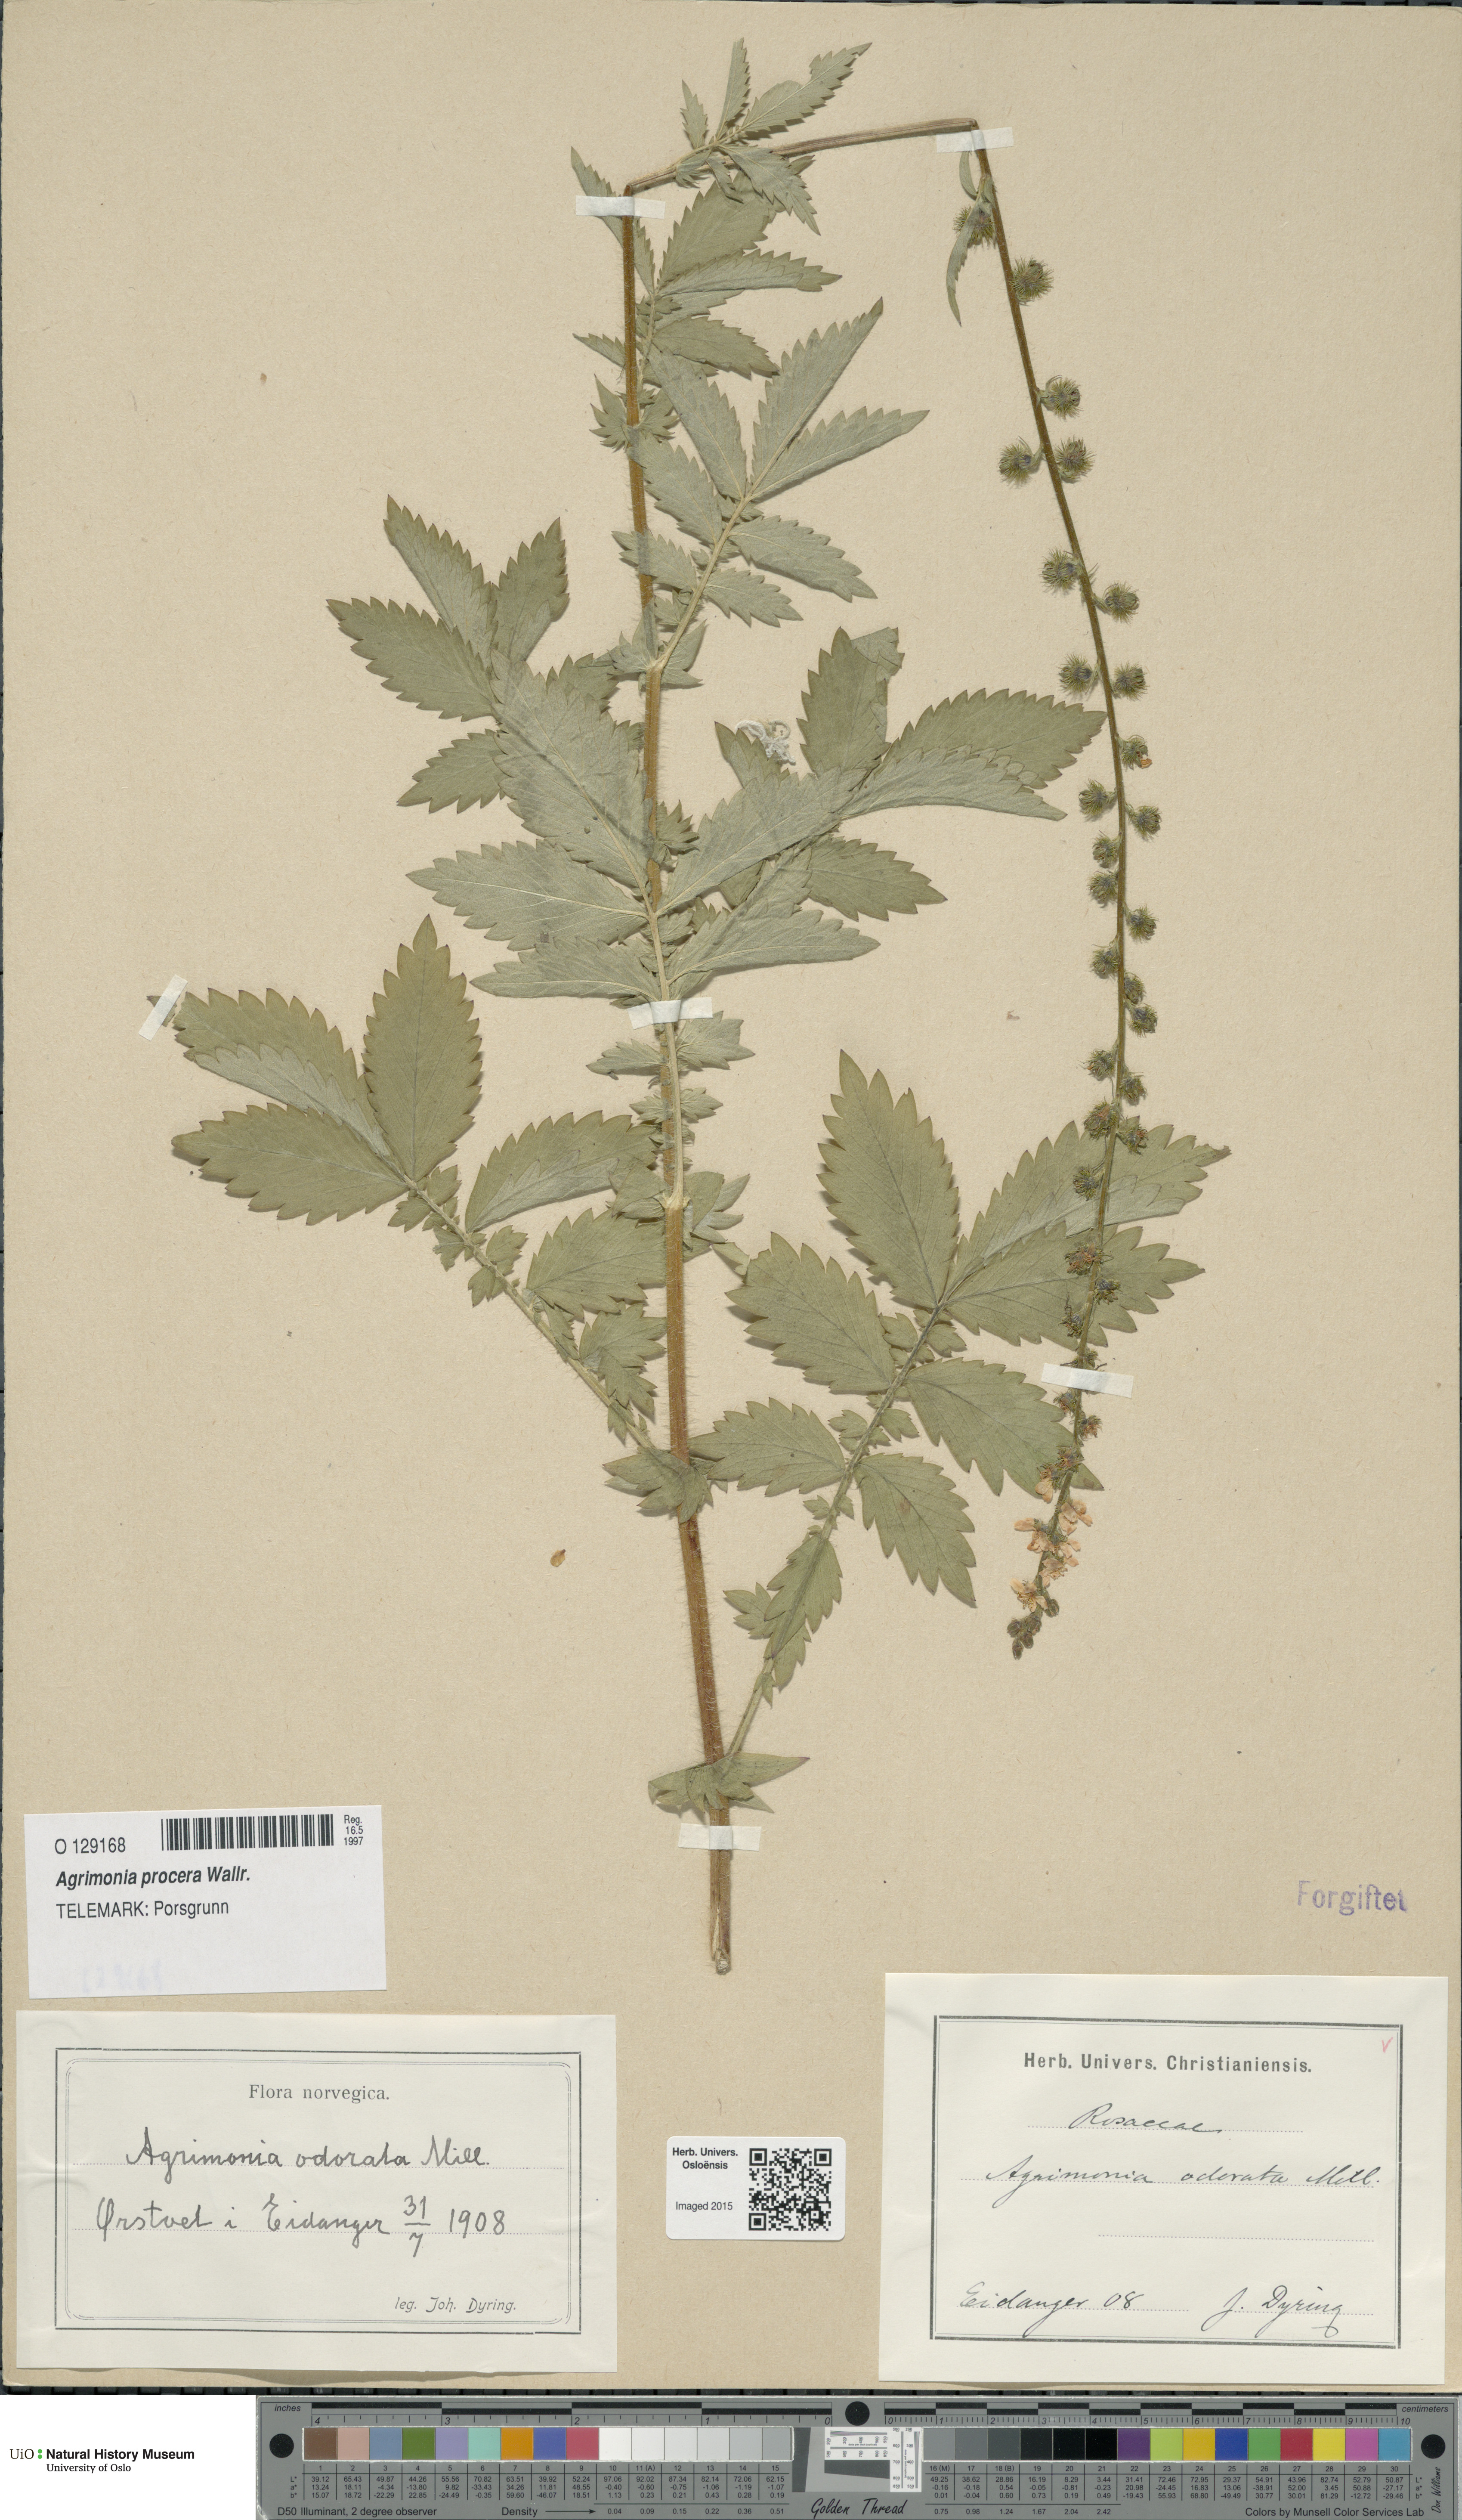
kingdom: Plantae
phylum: Tracheophyta
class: Magnoliopsida
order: Rosales
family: Rosaceae
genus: Agrimonia
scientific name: Agrimonia procera
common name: Fragrant agrimony
